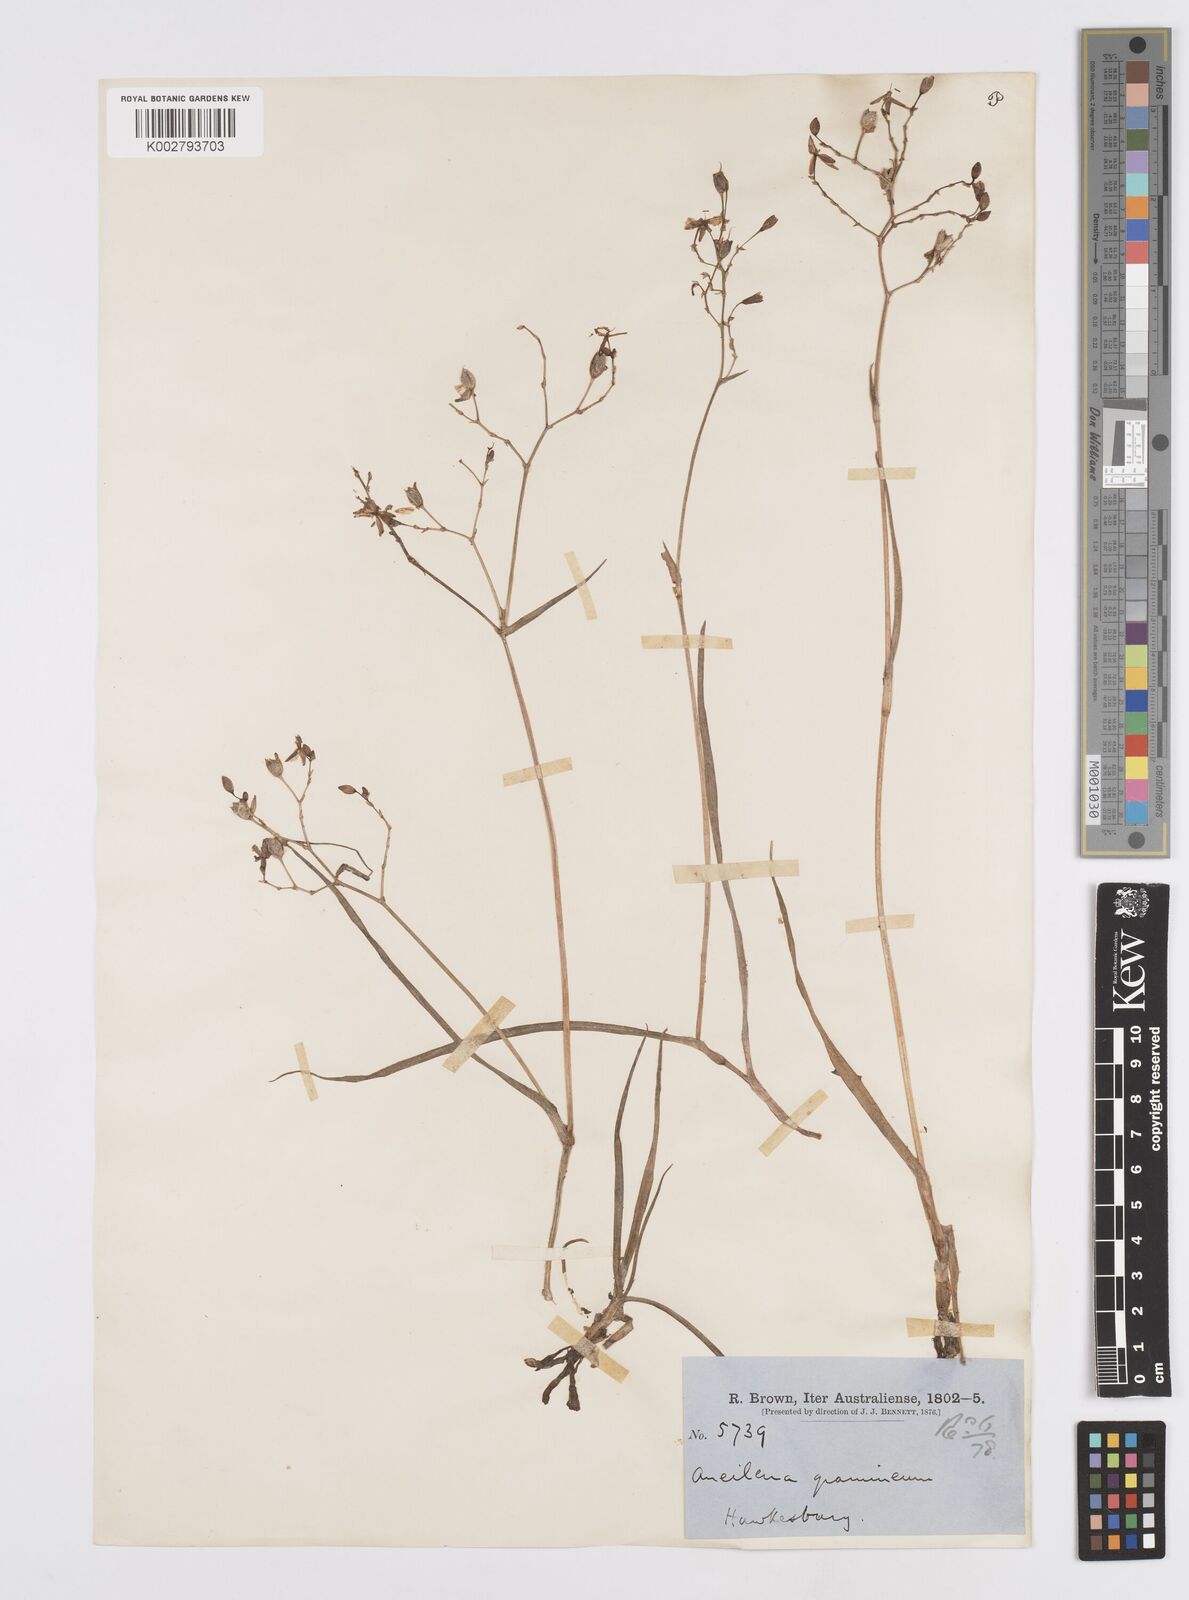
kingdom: Plantae
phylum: Tracheophyta
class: Liliopsida
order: Commelinales
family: Commelinaceae
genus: Murdannia
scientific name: Murdannia graminea
